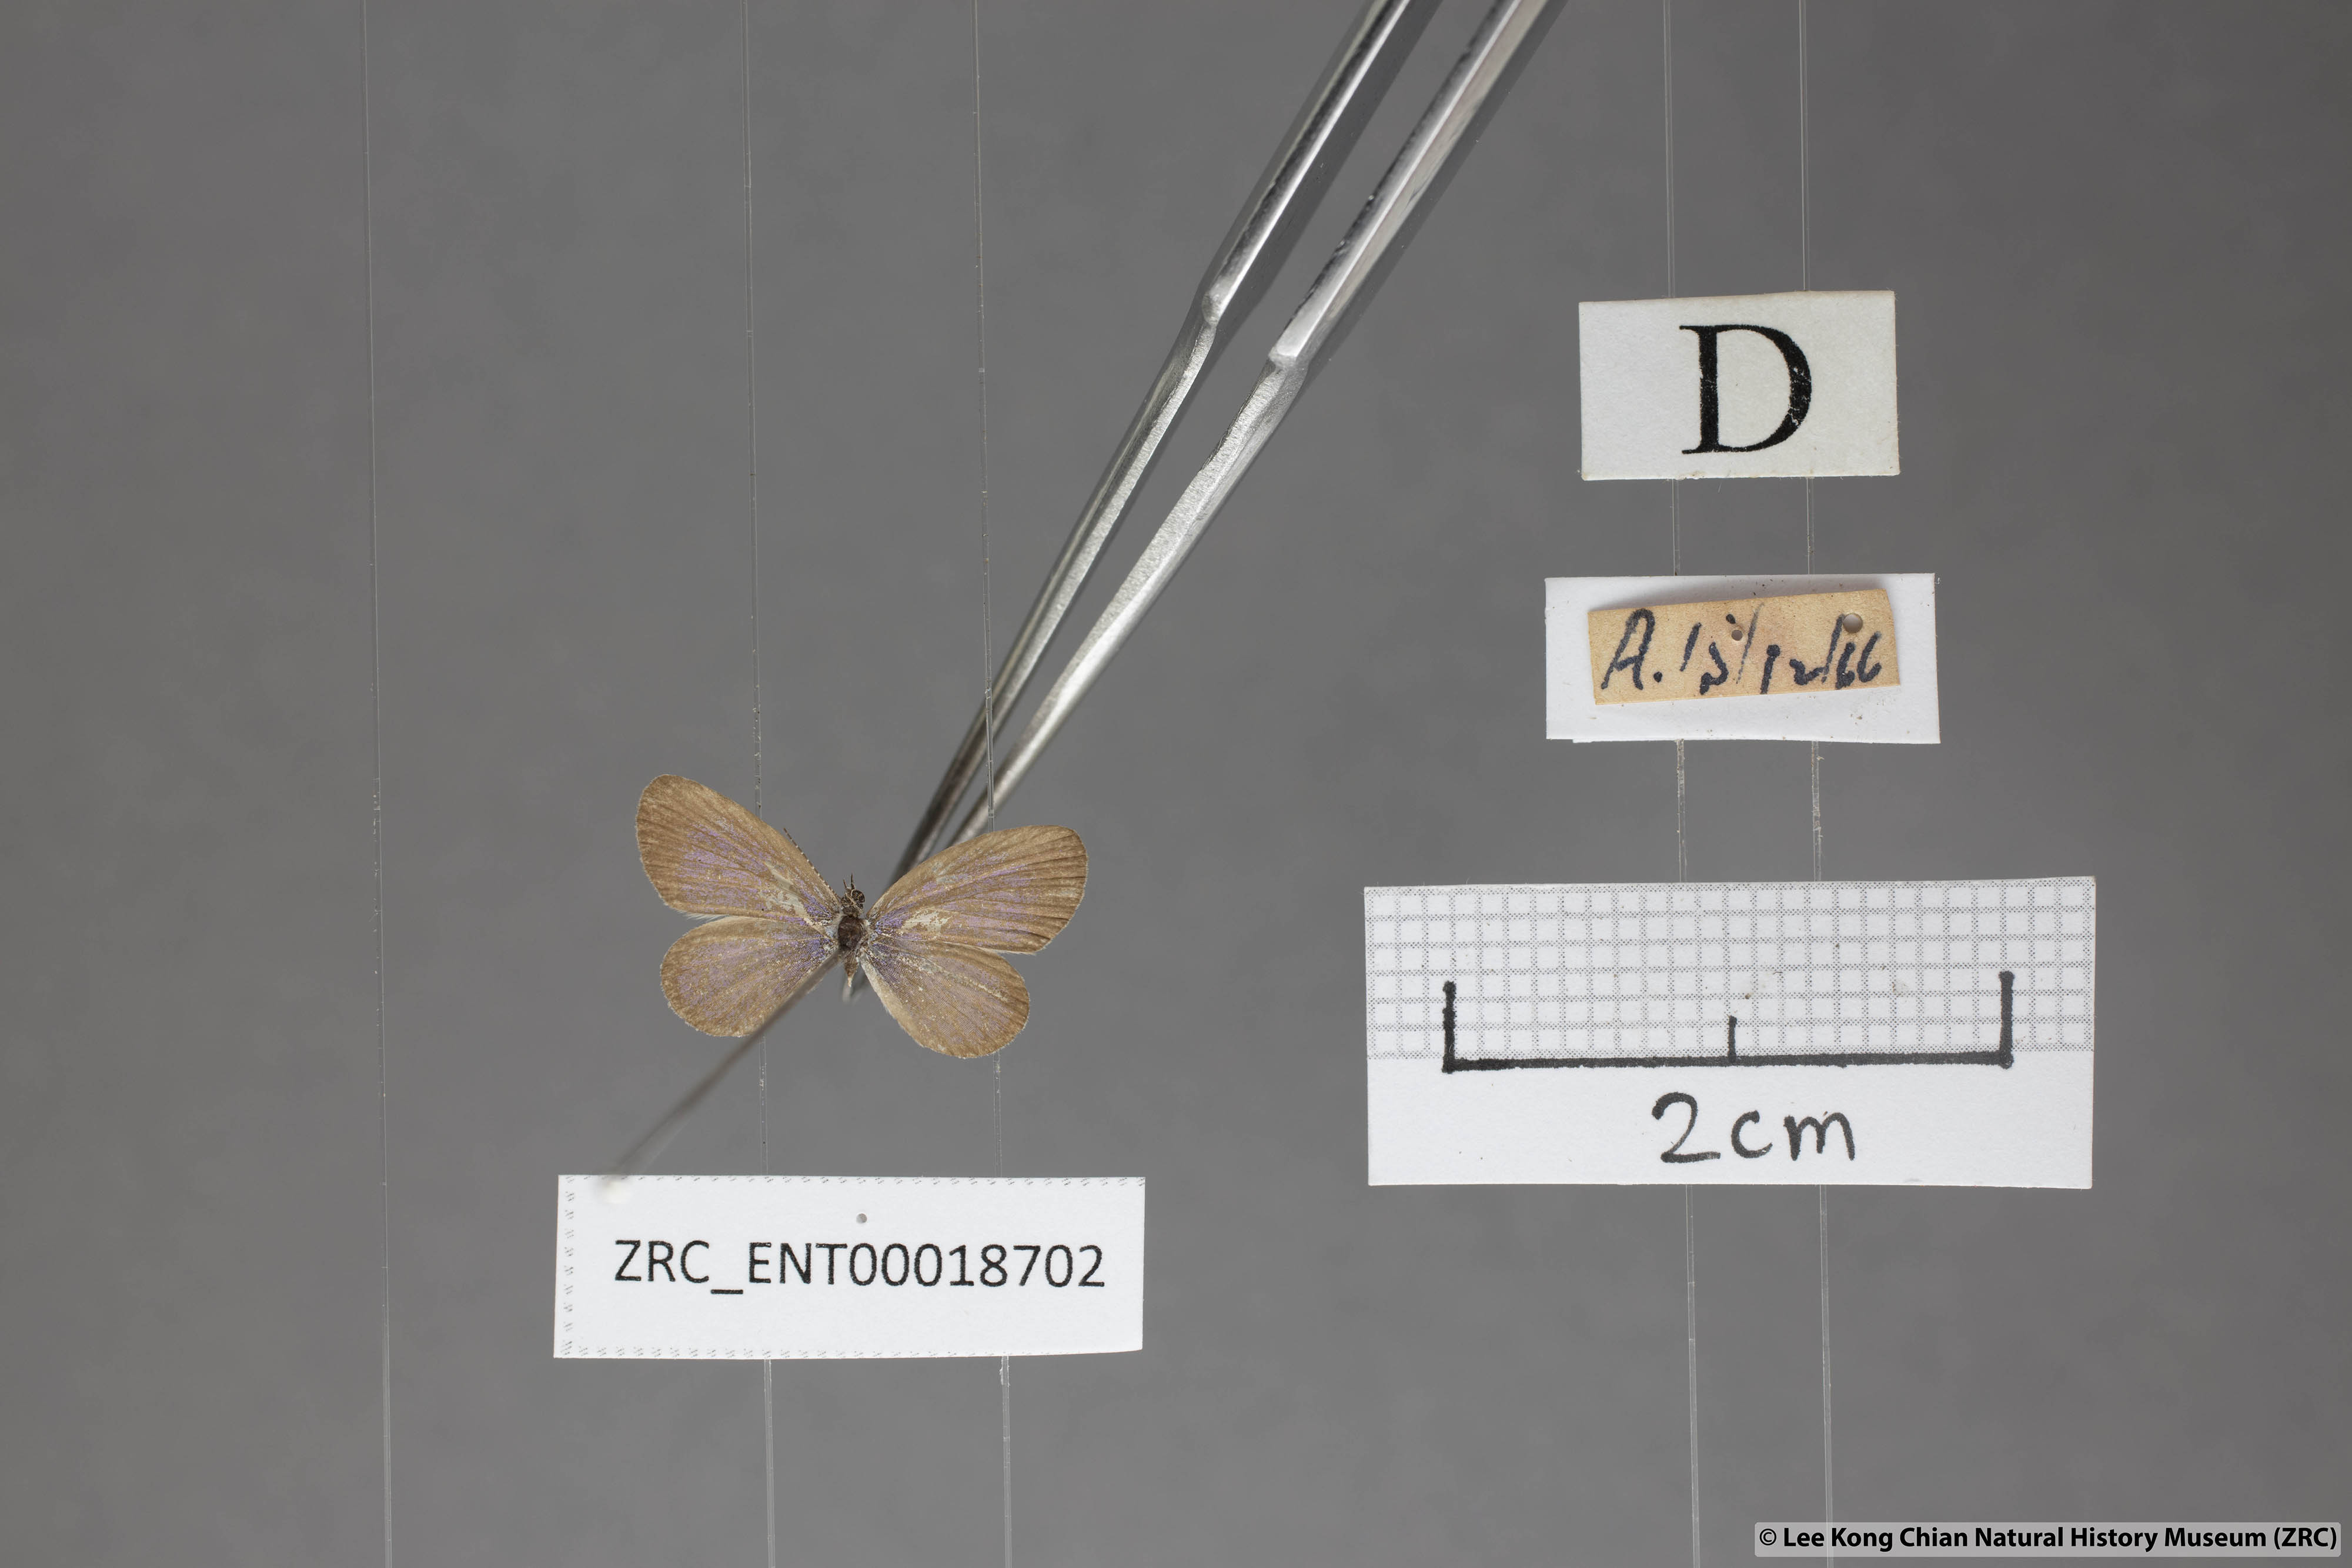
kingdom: Animalia
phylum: Arthropoda
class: Insecta
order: Lepidoptera
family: Lycaenidae
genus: Zizula
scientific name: Zizula hylax
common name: Gaika blue
